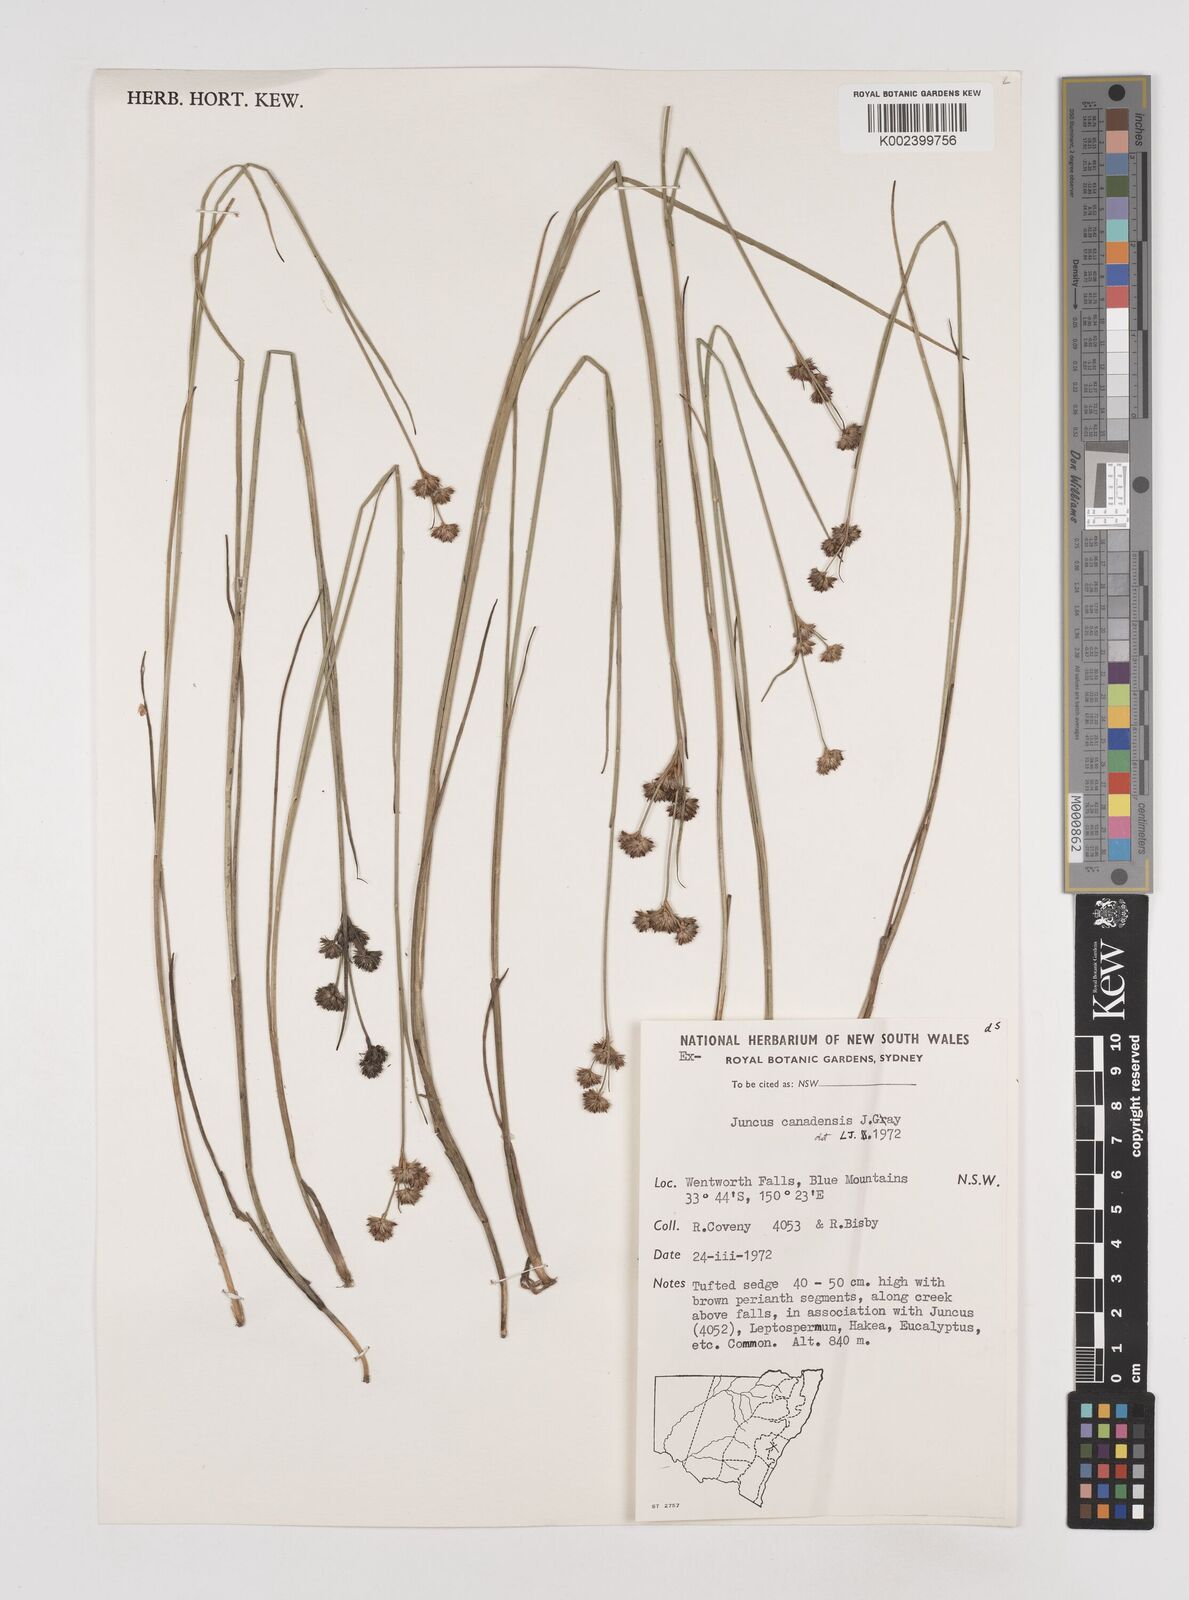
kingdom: Plantae
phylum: Tracheophyta
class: Liliopsida
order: Poales
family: Juncaceae
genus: Juncus
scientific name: Juncus canadensis
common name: Canada rush
